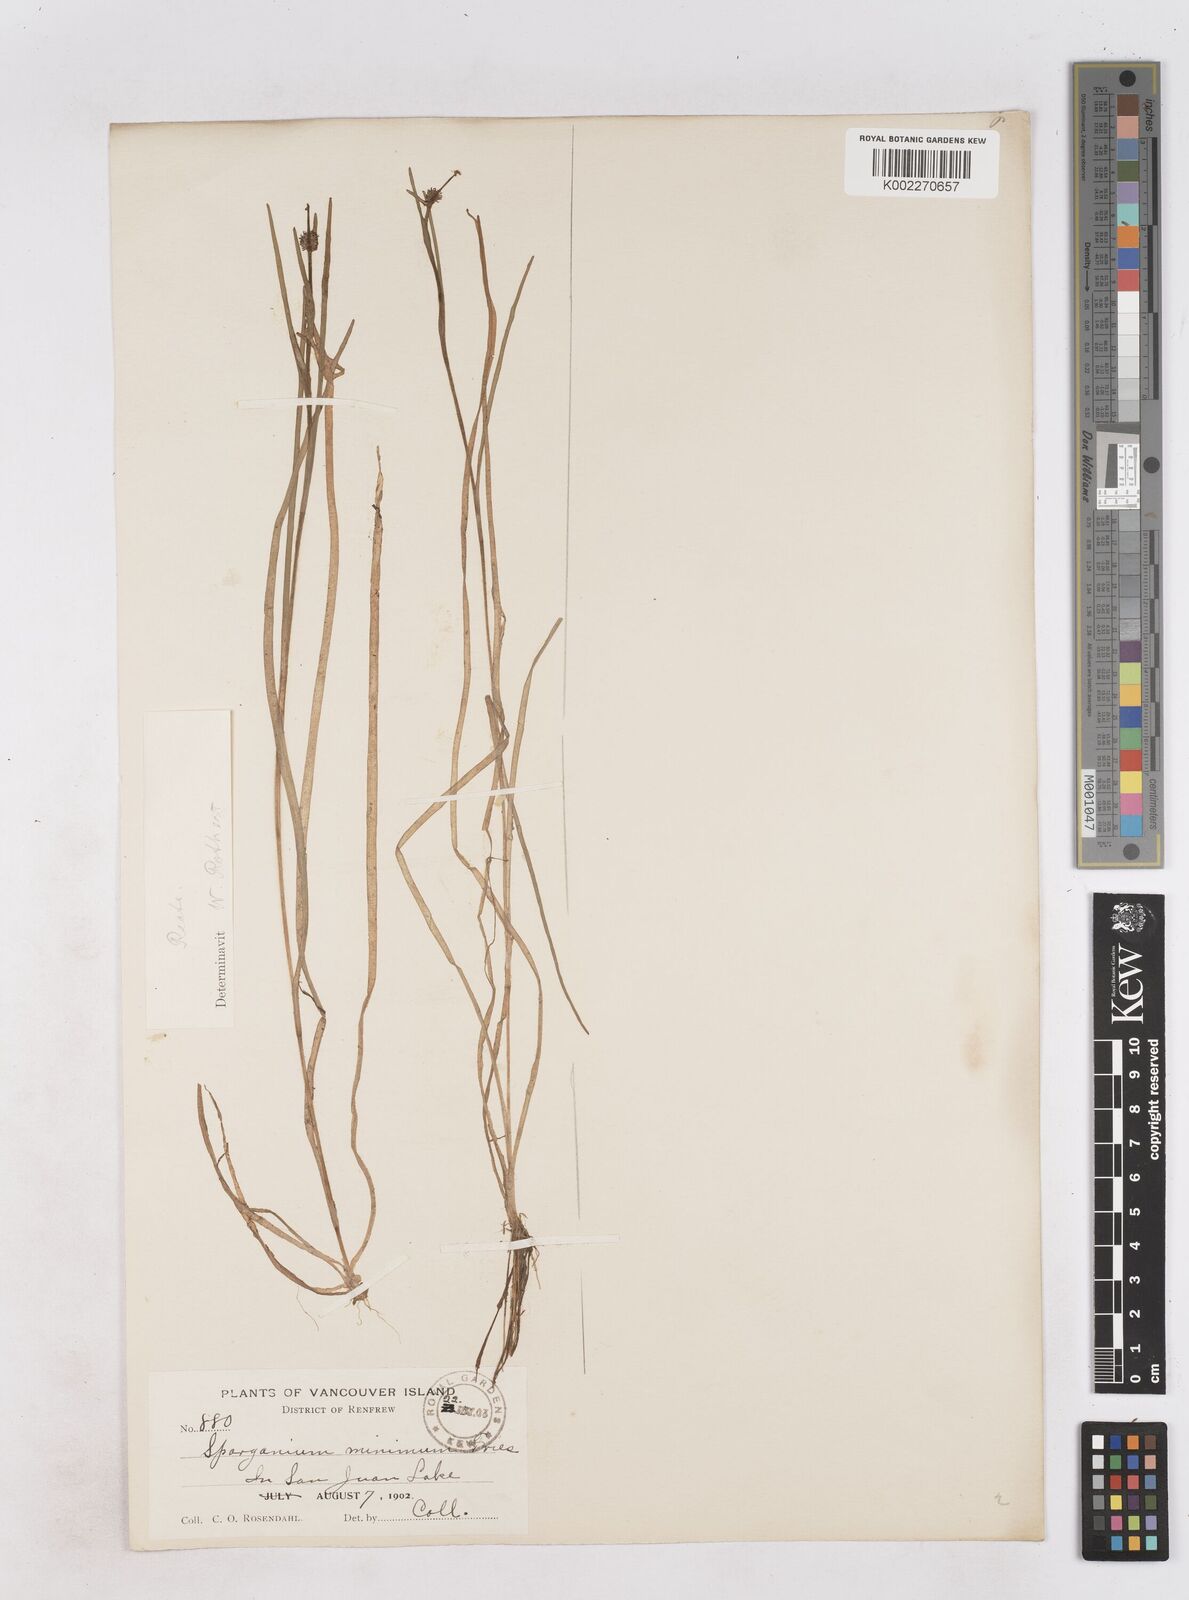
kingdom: Plantae
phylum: Tracheophyta
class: Liliopsida
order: Poales
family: Typhaceae
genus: Sparganium
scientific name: Sparganium natans
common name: Least bur-reed
